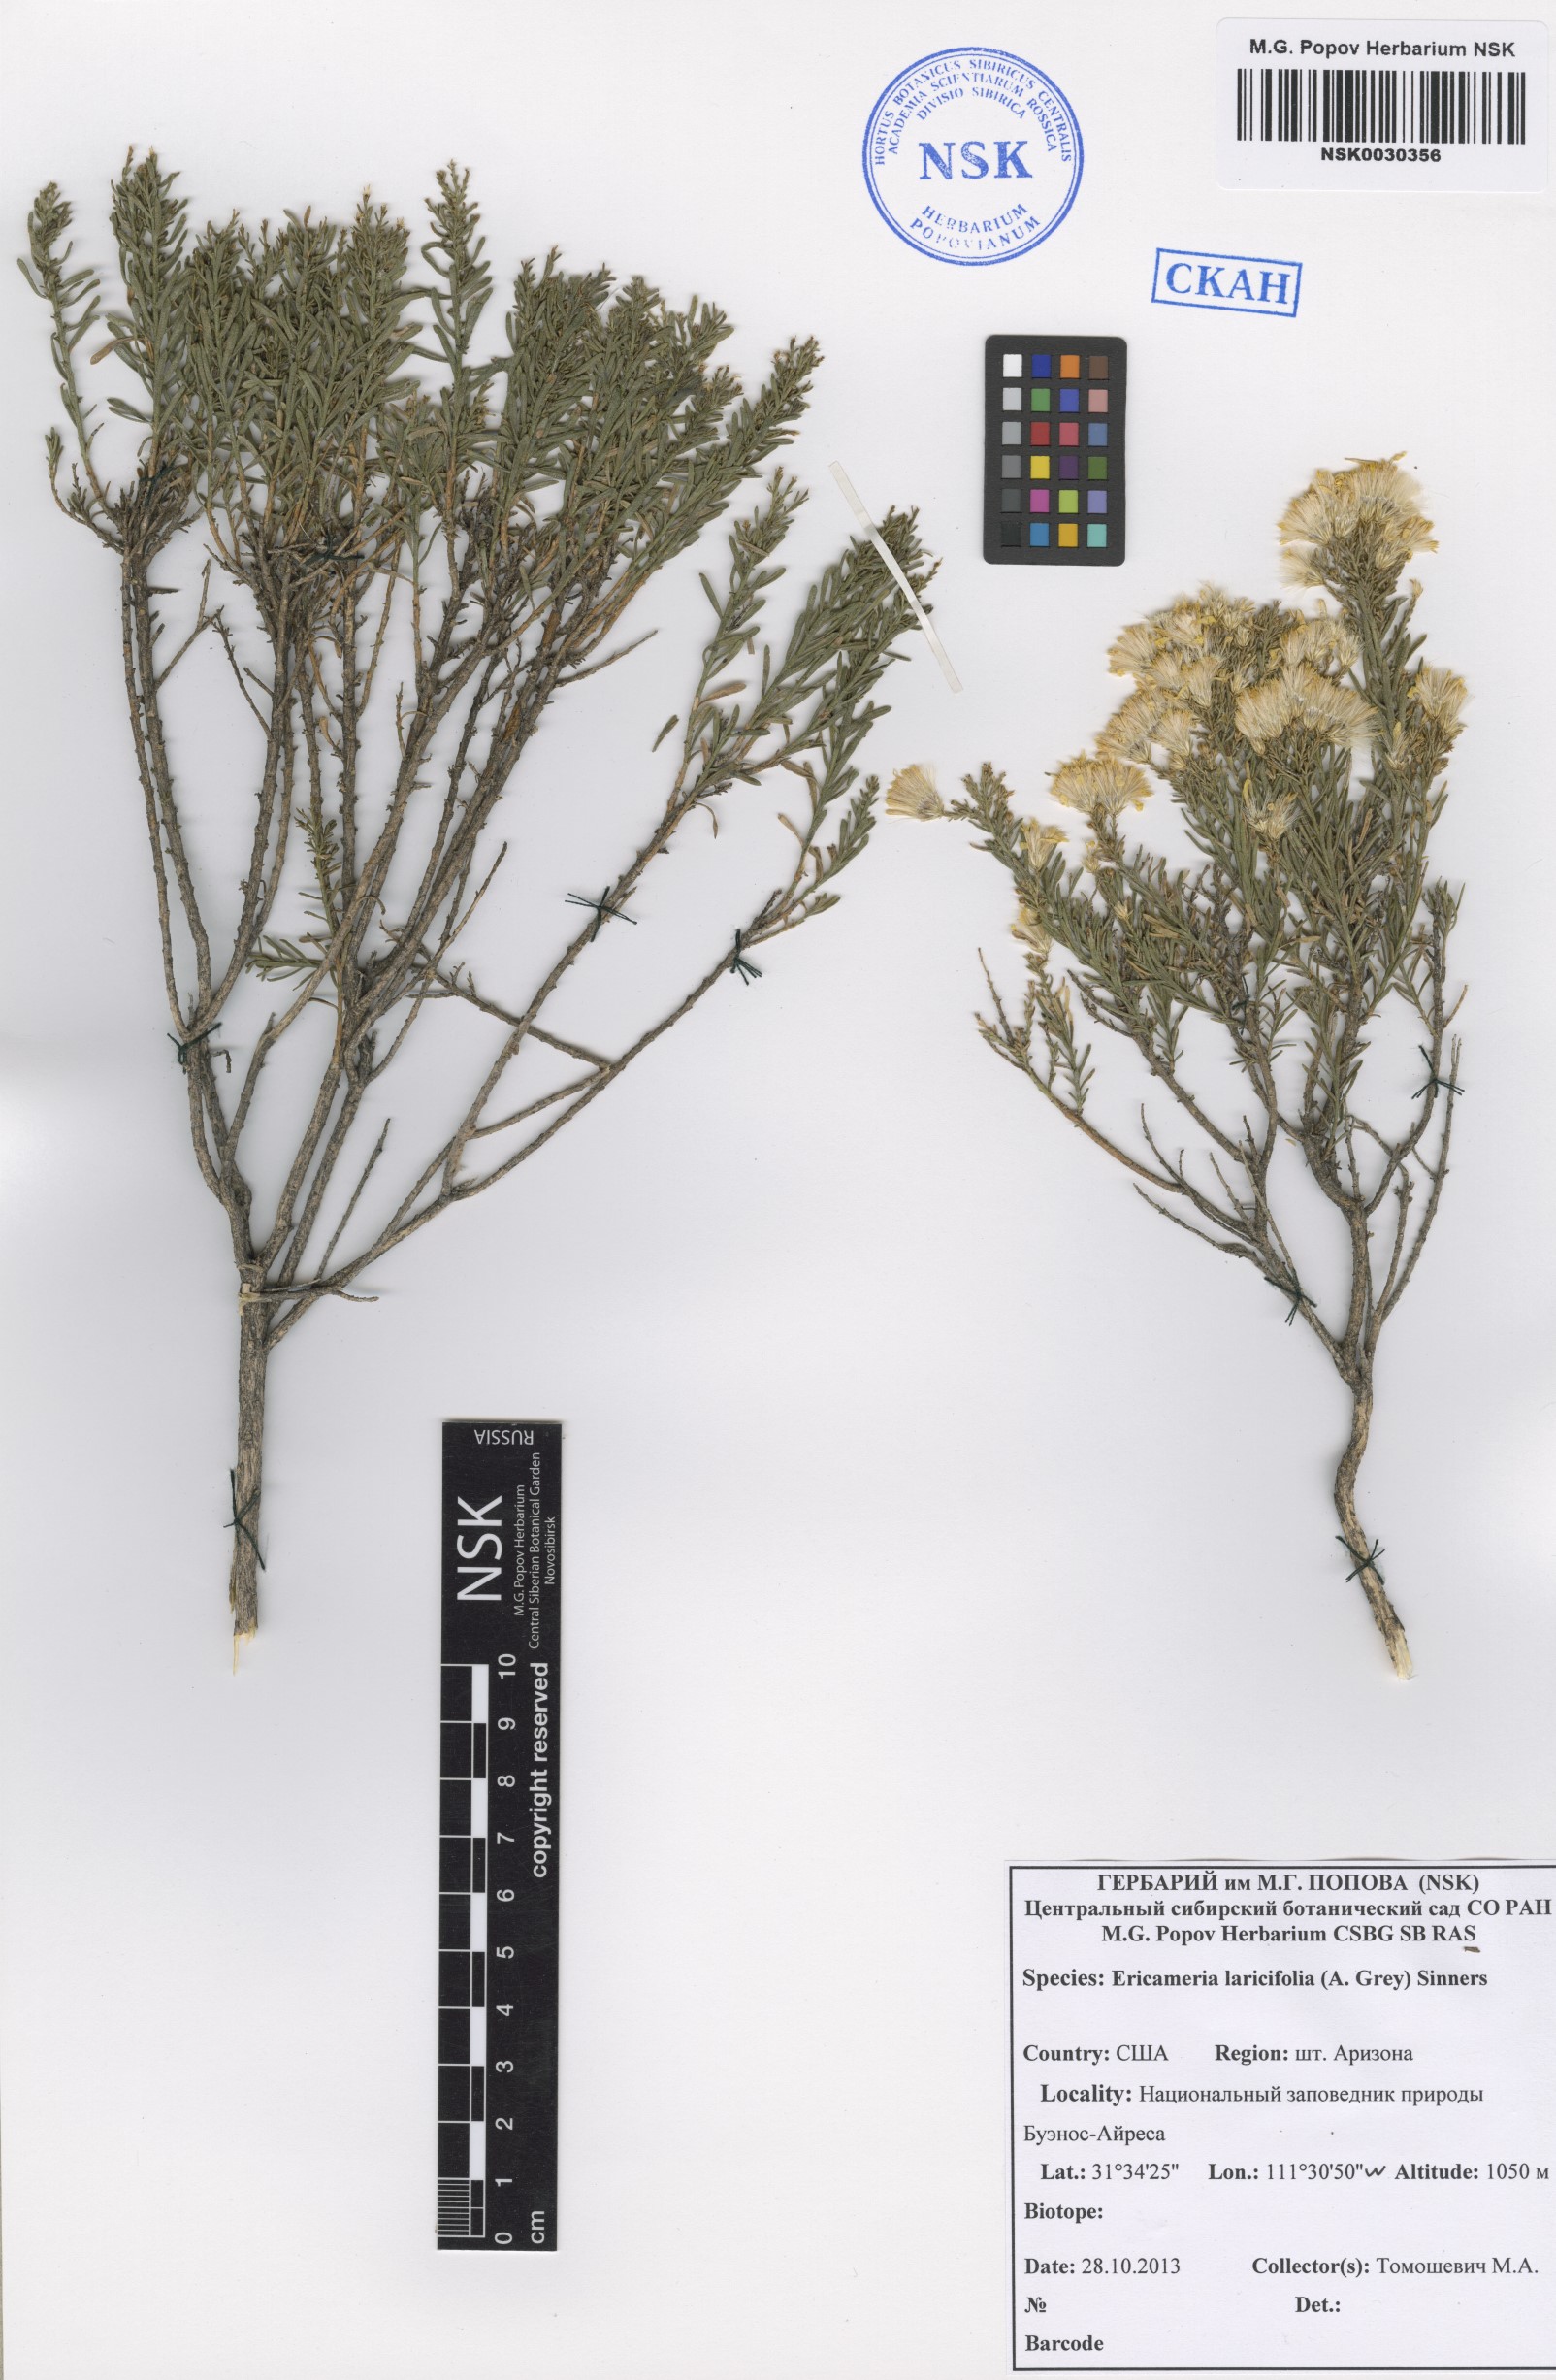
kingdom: Plantae
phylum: Tracheophyta
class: Magnoliopsida
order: Asterales
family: Asteraceae
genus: Ericameria
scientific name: Ericameria laricifolia
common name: Turpentine-bush
